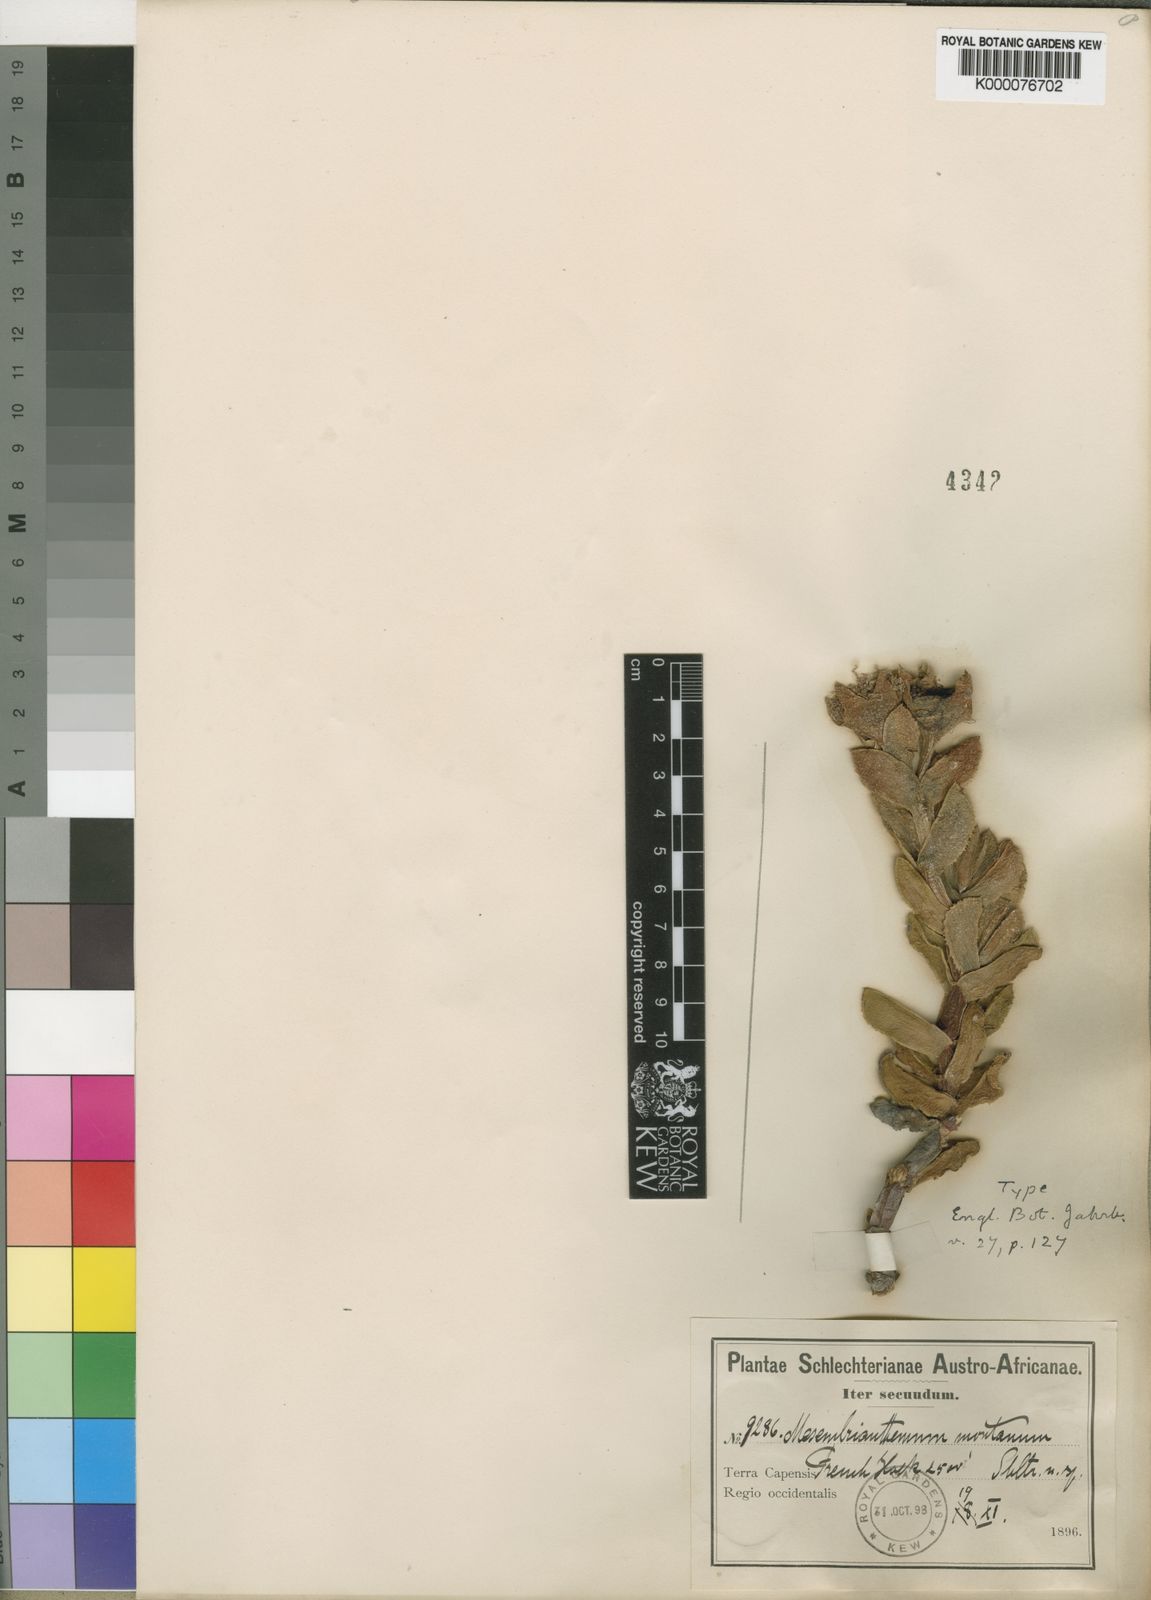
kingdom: Plantae
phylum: Tracheophyta
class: Magnoliopsida
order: Caryophyllales
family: Aizoaceae
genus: Erepsia
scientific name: Erepsia heteropetala
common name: Lesser sea-fig
